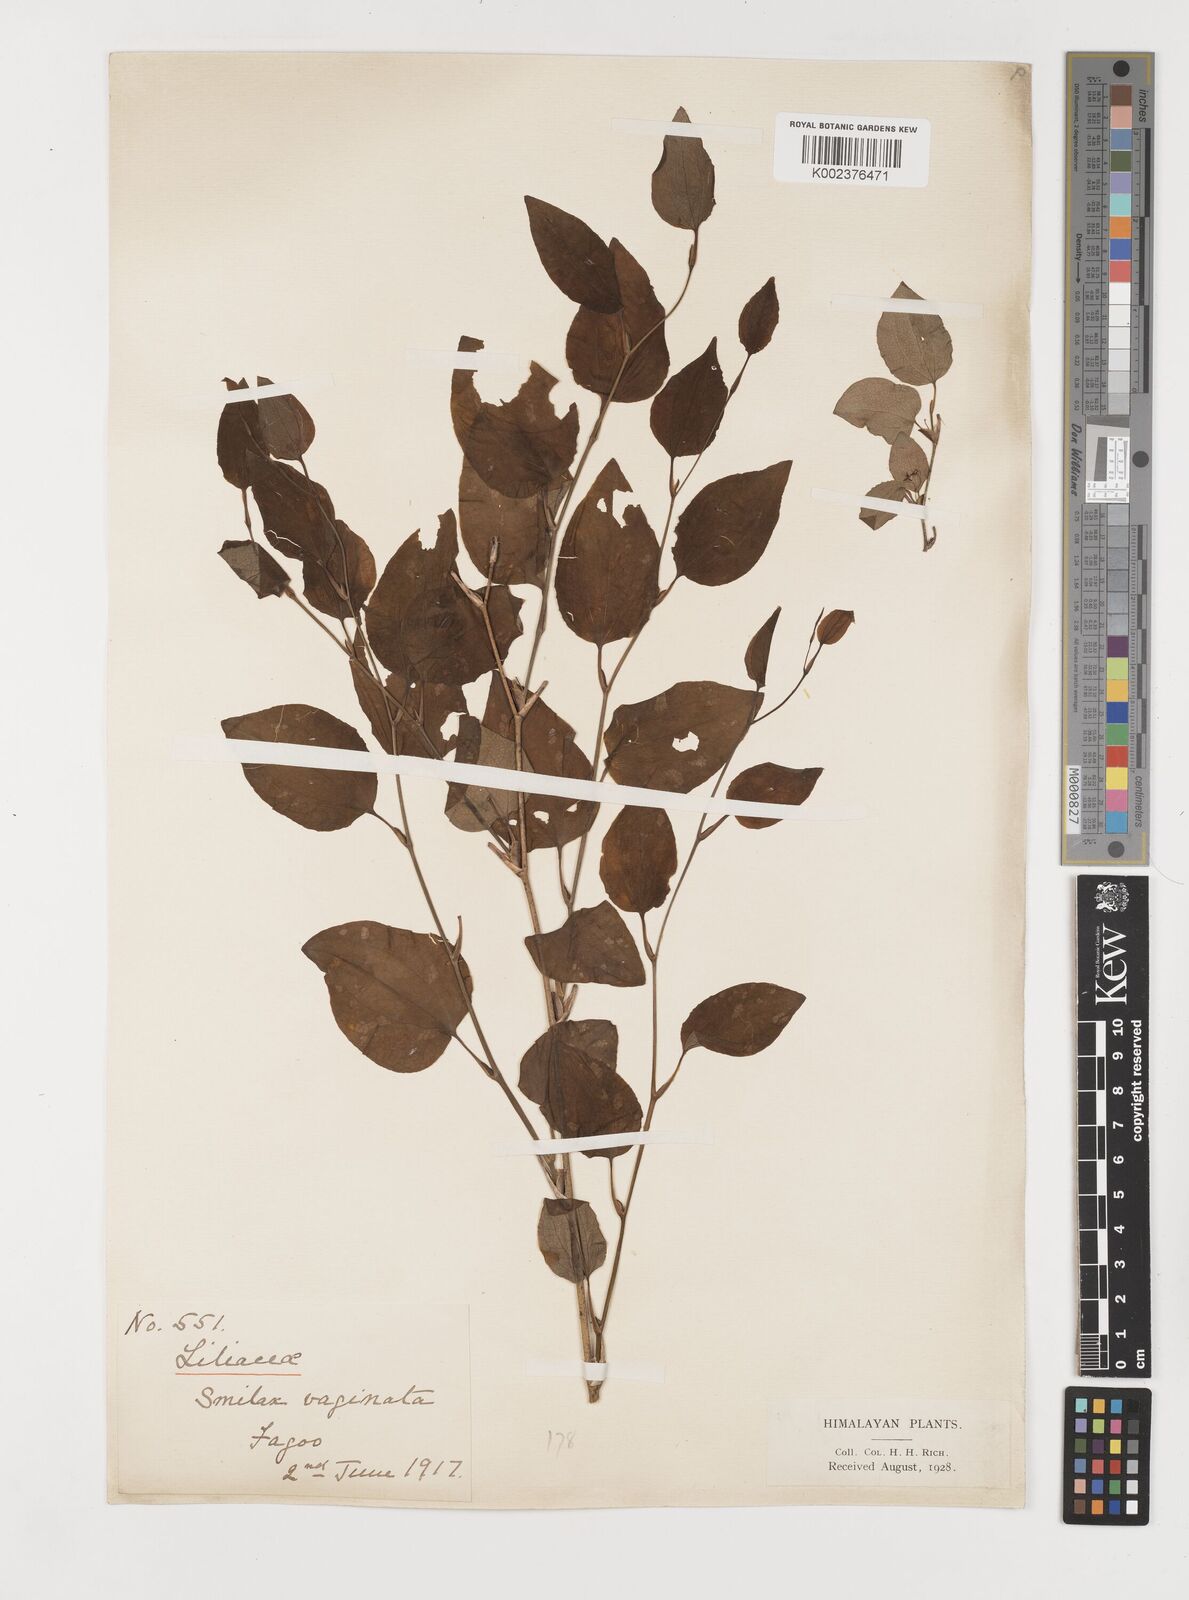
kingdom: Plantae
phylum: Tracheophyta
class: Liliopsida
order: Liliales
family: Smilacaceae
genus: Smilax
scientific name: Smilax vaginata
